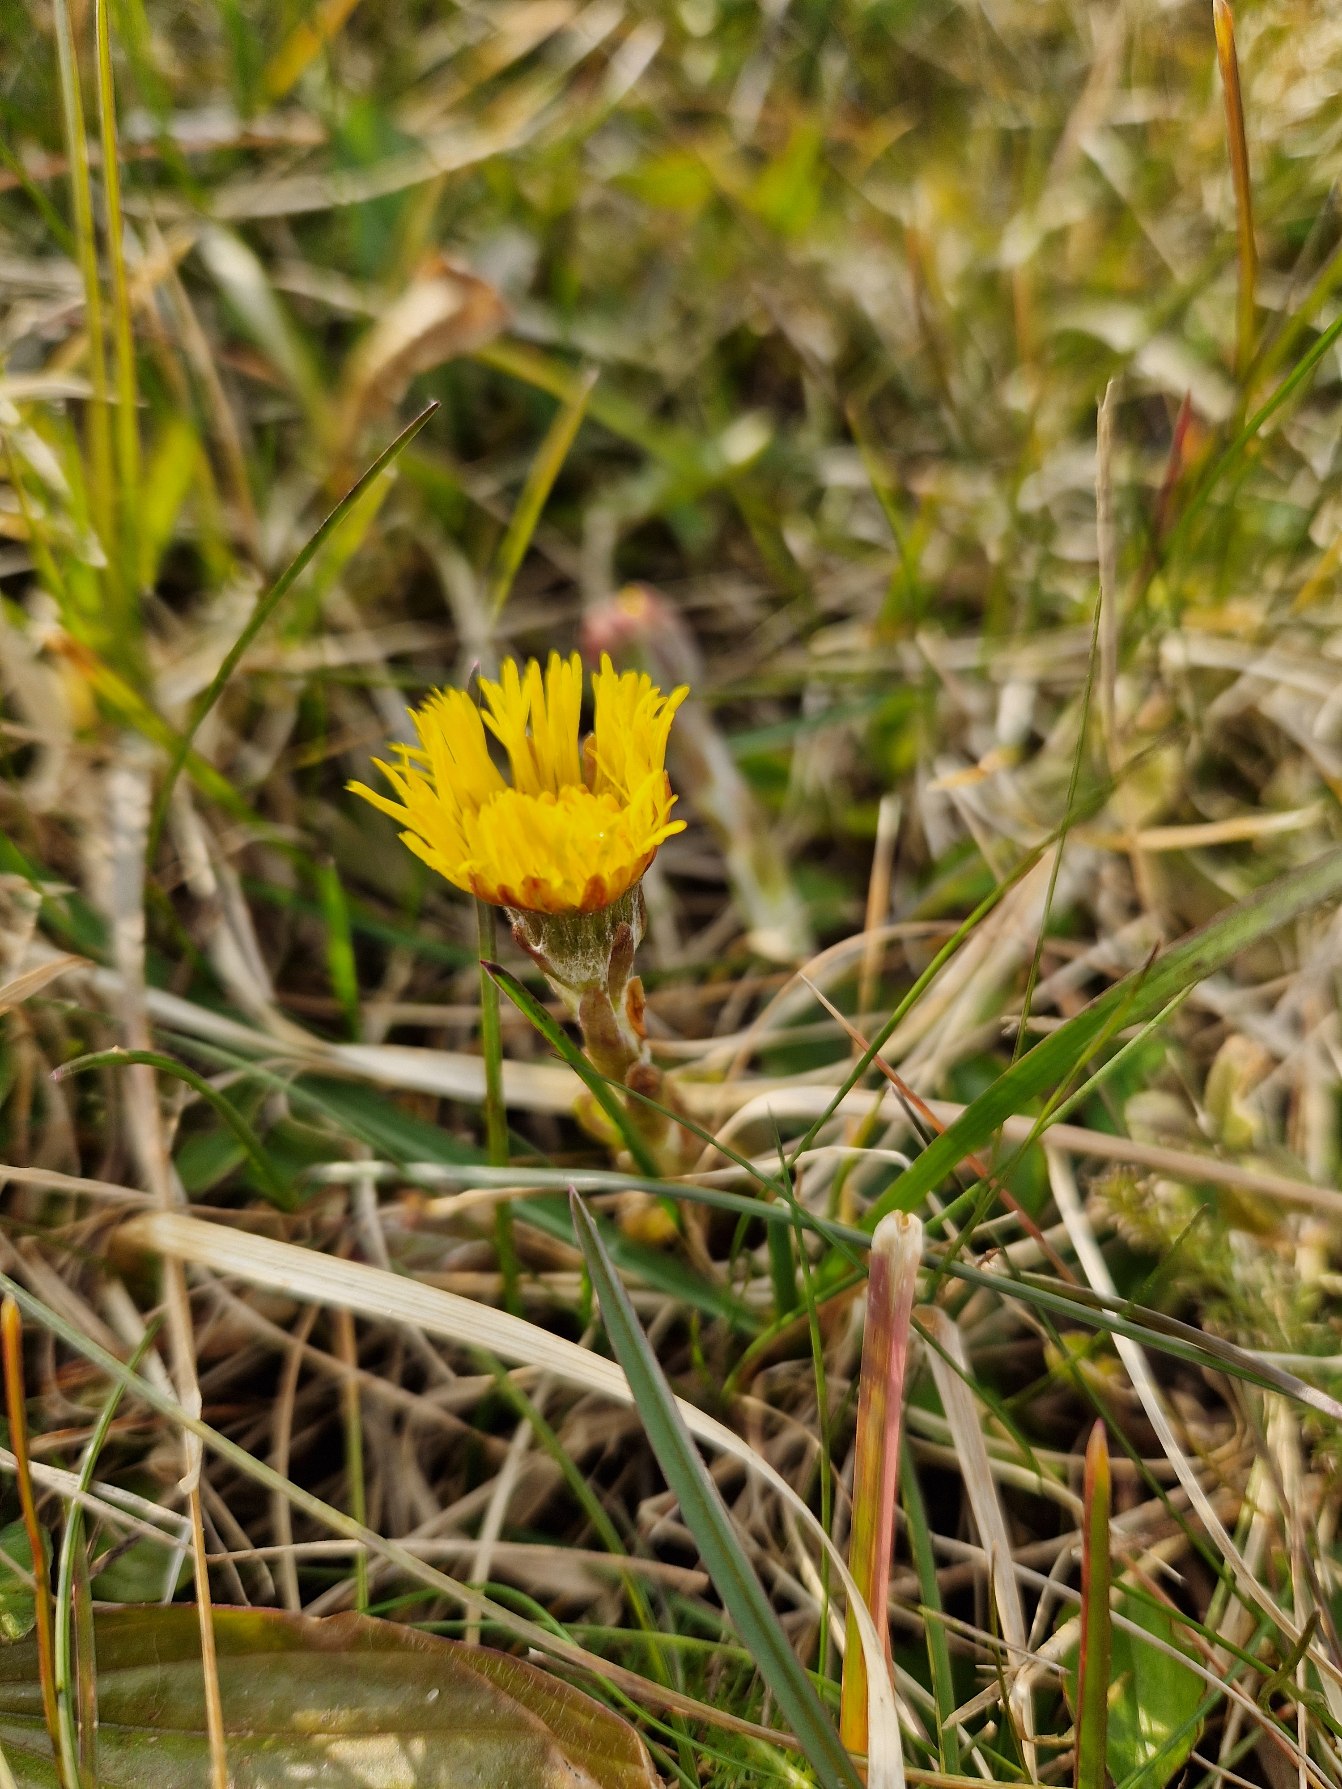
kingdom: Plantae
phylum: Tracheophyta
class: Magnoliopsida
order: Asterales
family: Asteraceae
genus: Tussilago
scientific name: Tussilago farfara
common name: Følfod
